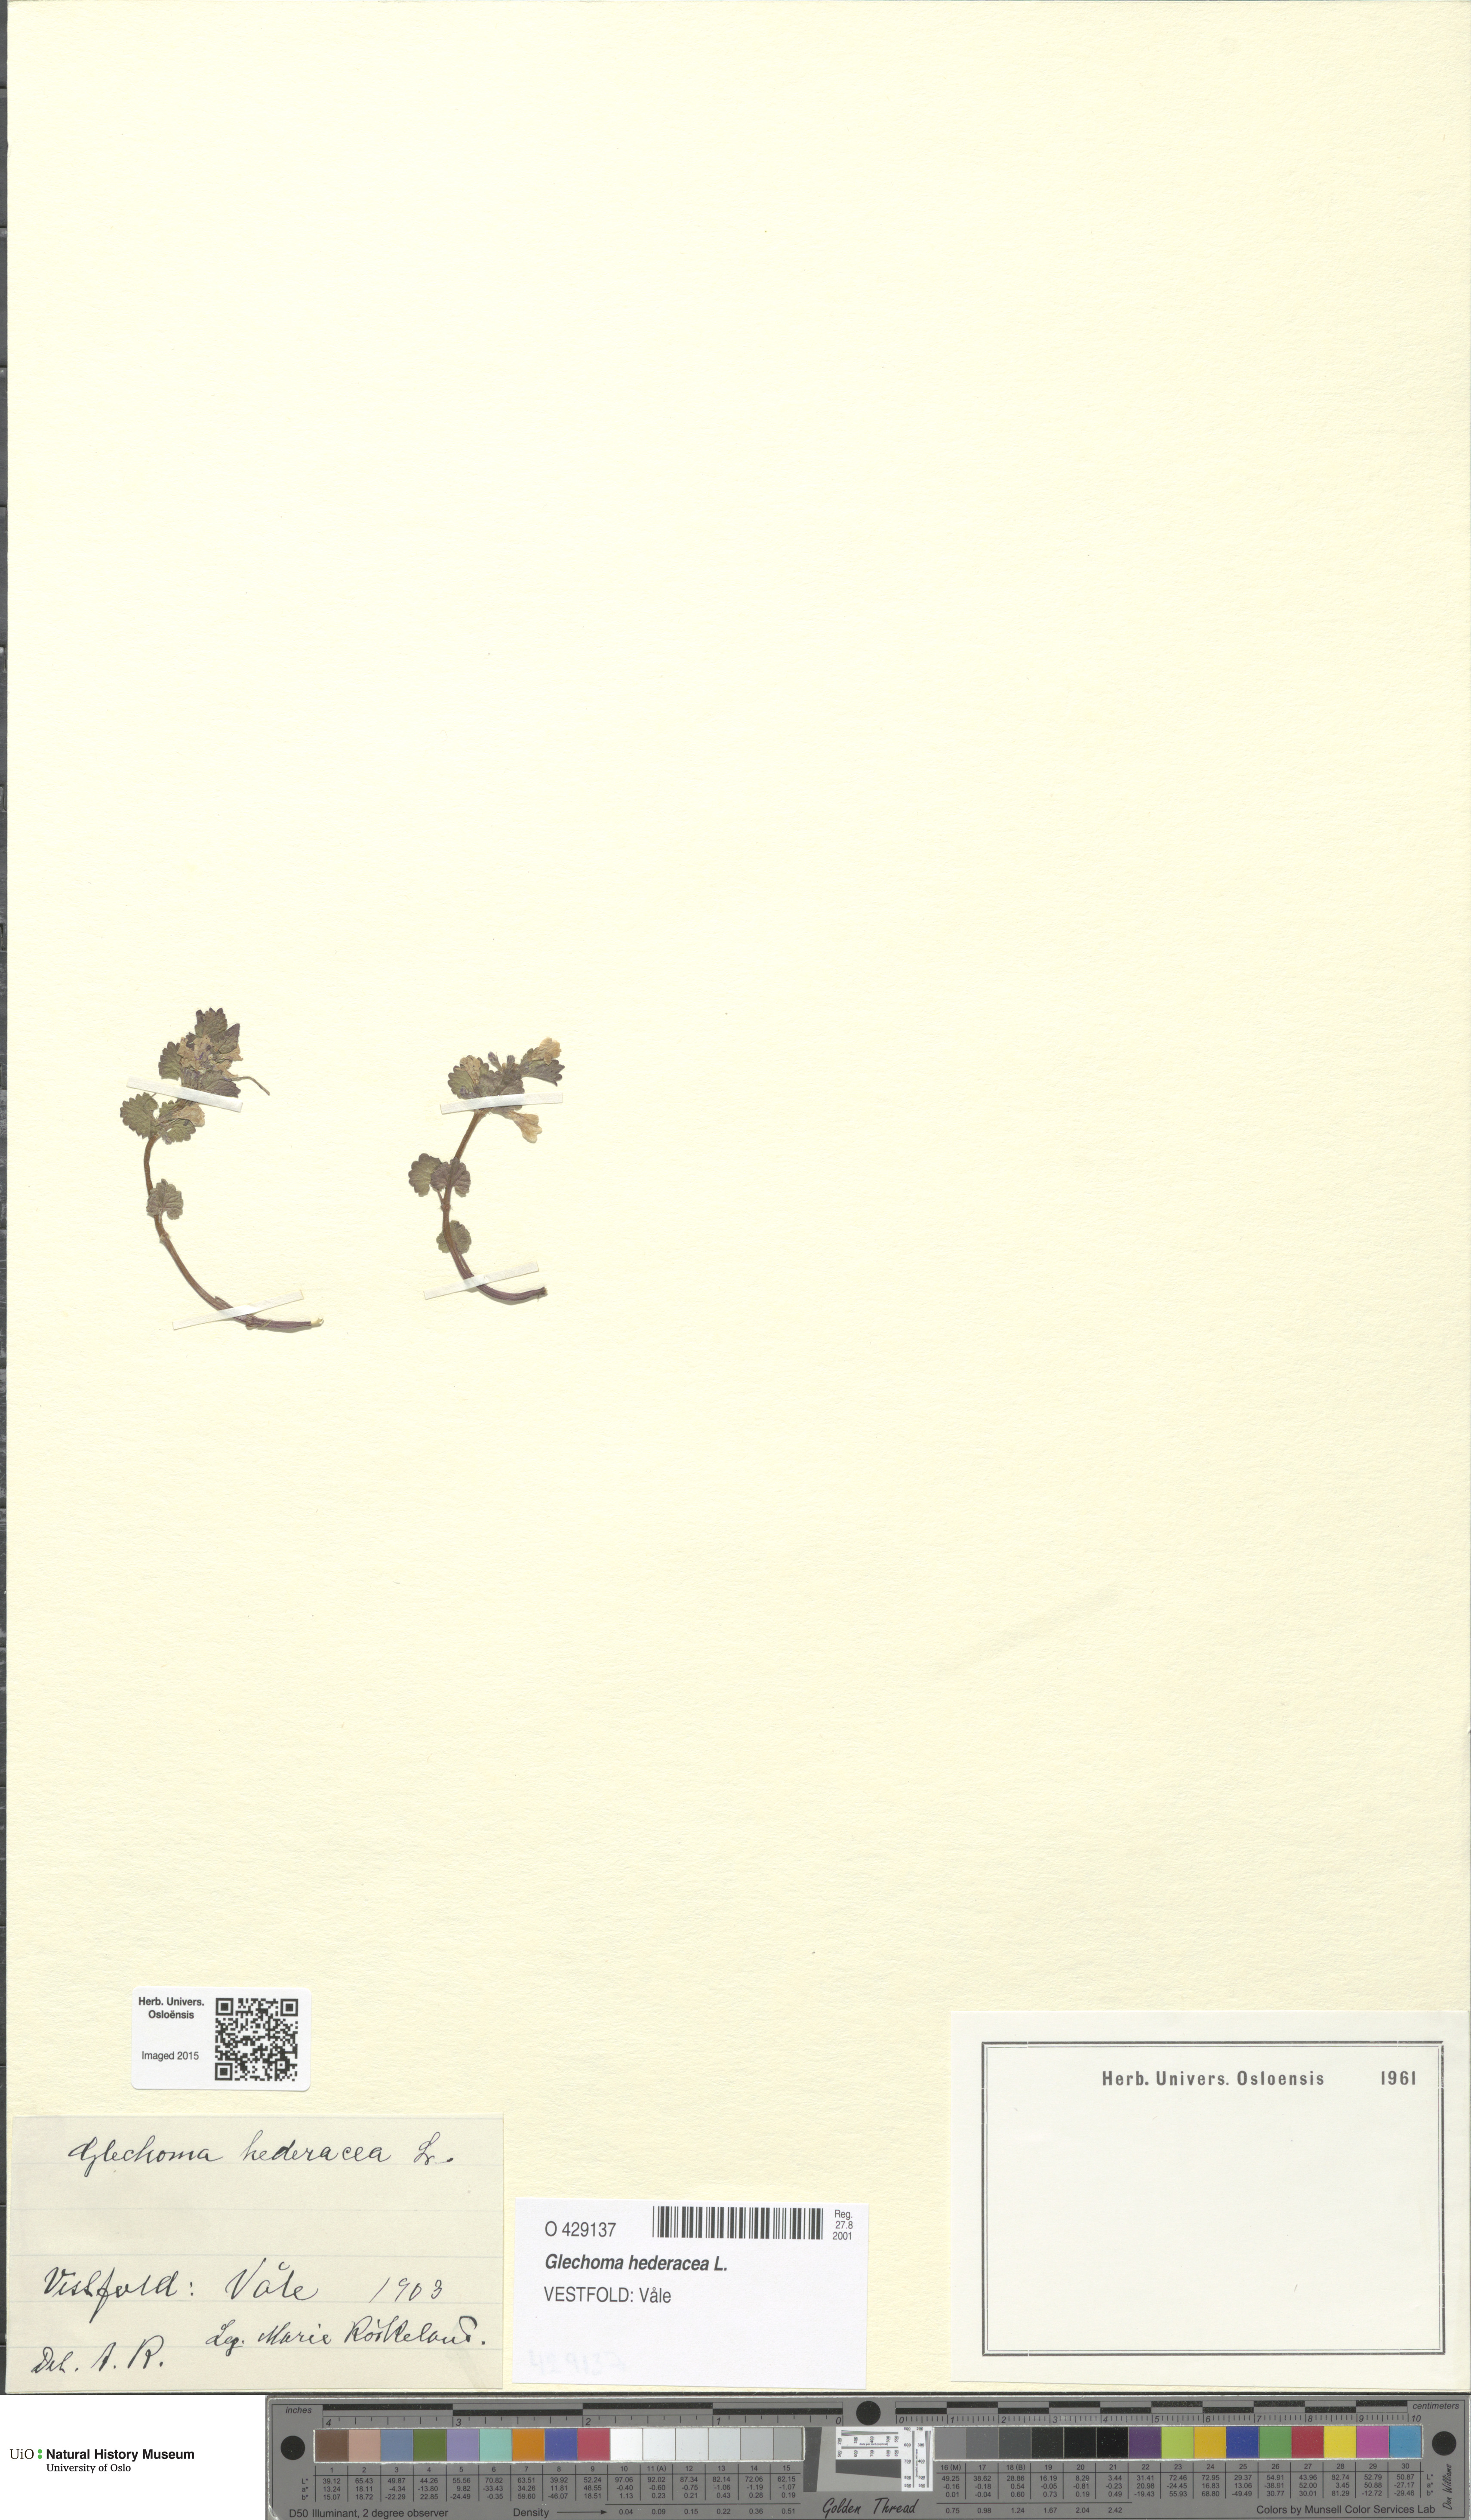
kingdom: Plantae
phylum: Tracheophyta
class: Magnoliopsida
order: Lamiales
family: Lamiaceae
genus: Glechoma
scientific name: Glechoma hederacea
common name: Ground ivy
